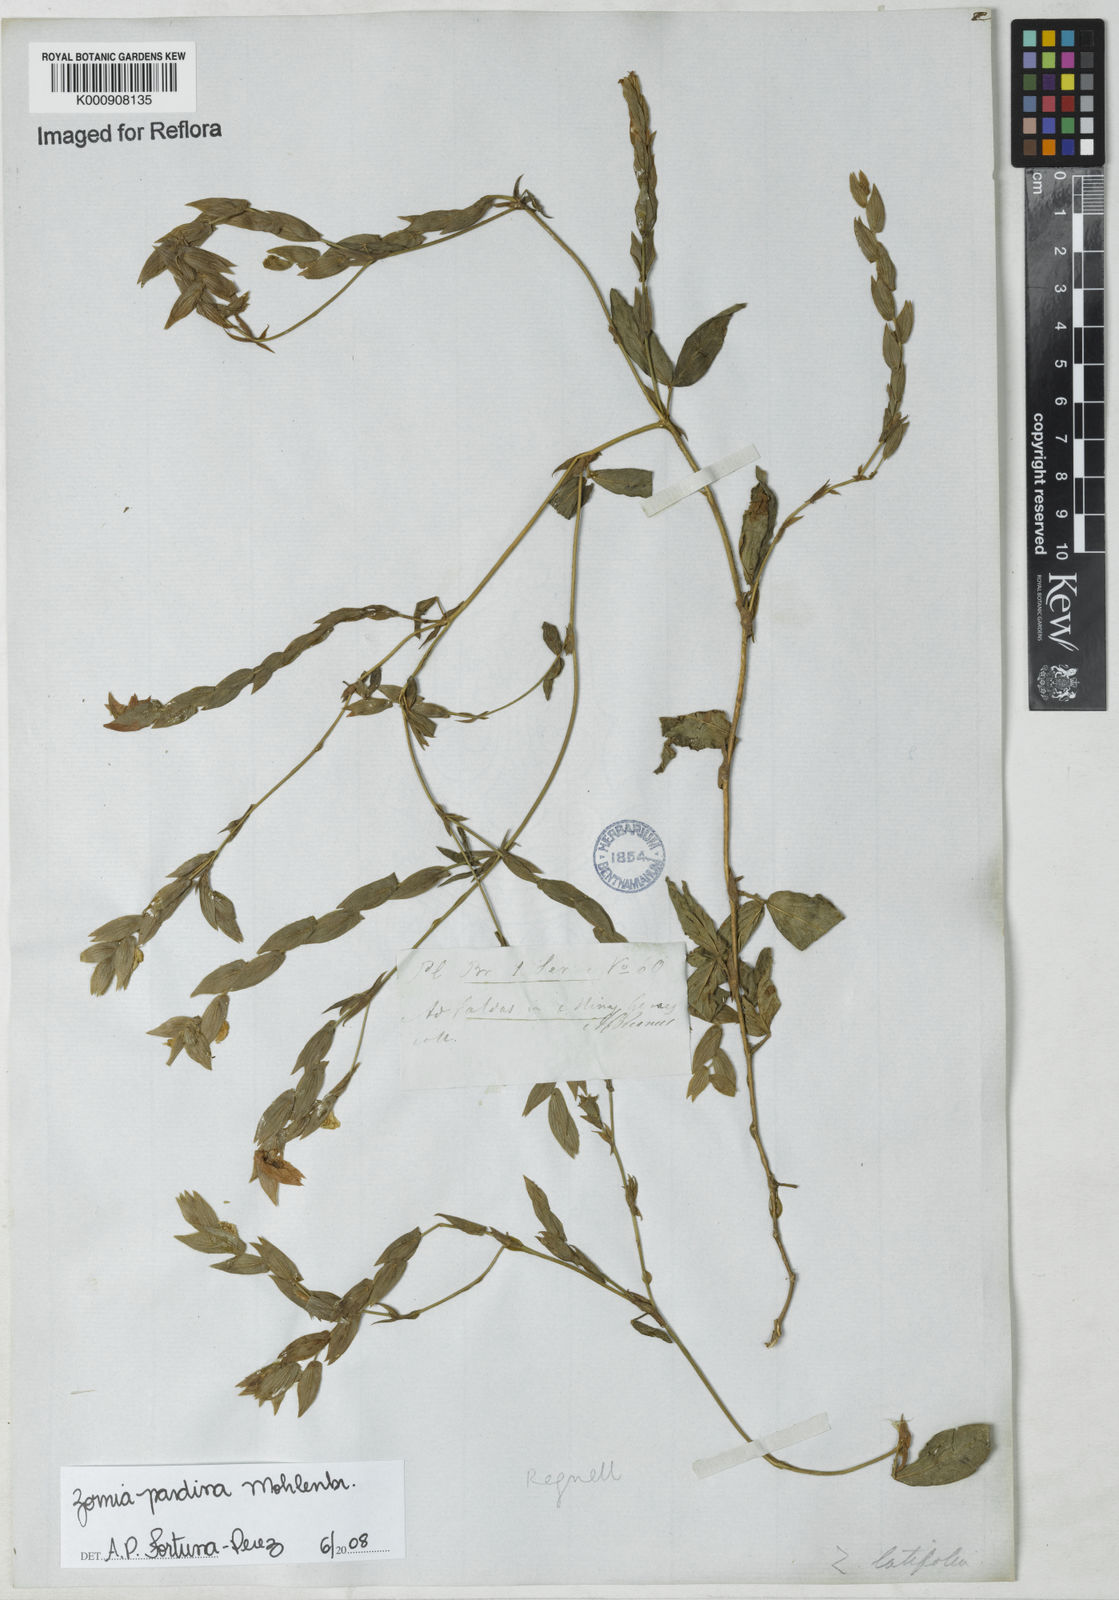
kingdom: Plantae
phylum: Tracheophyta
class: Magnoliopsida
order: Fabales
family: Fabaceae
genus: Zornia
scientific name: Zornia pardina
